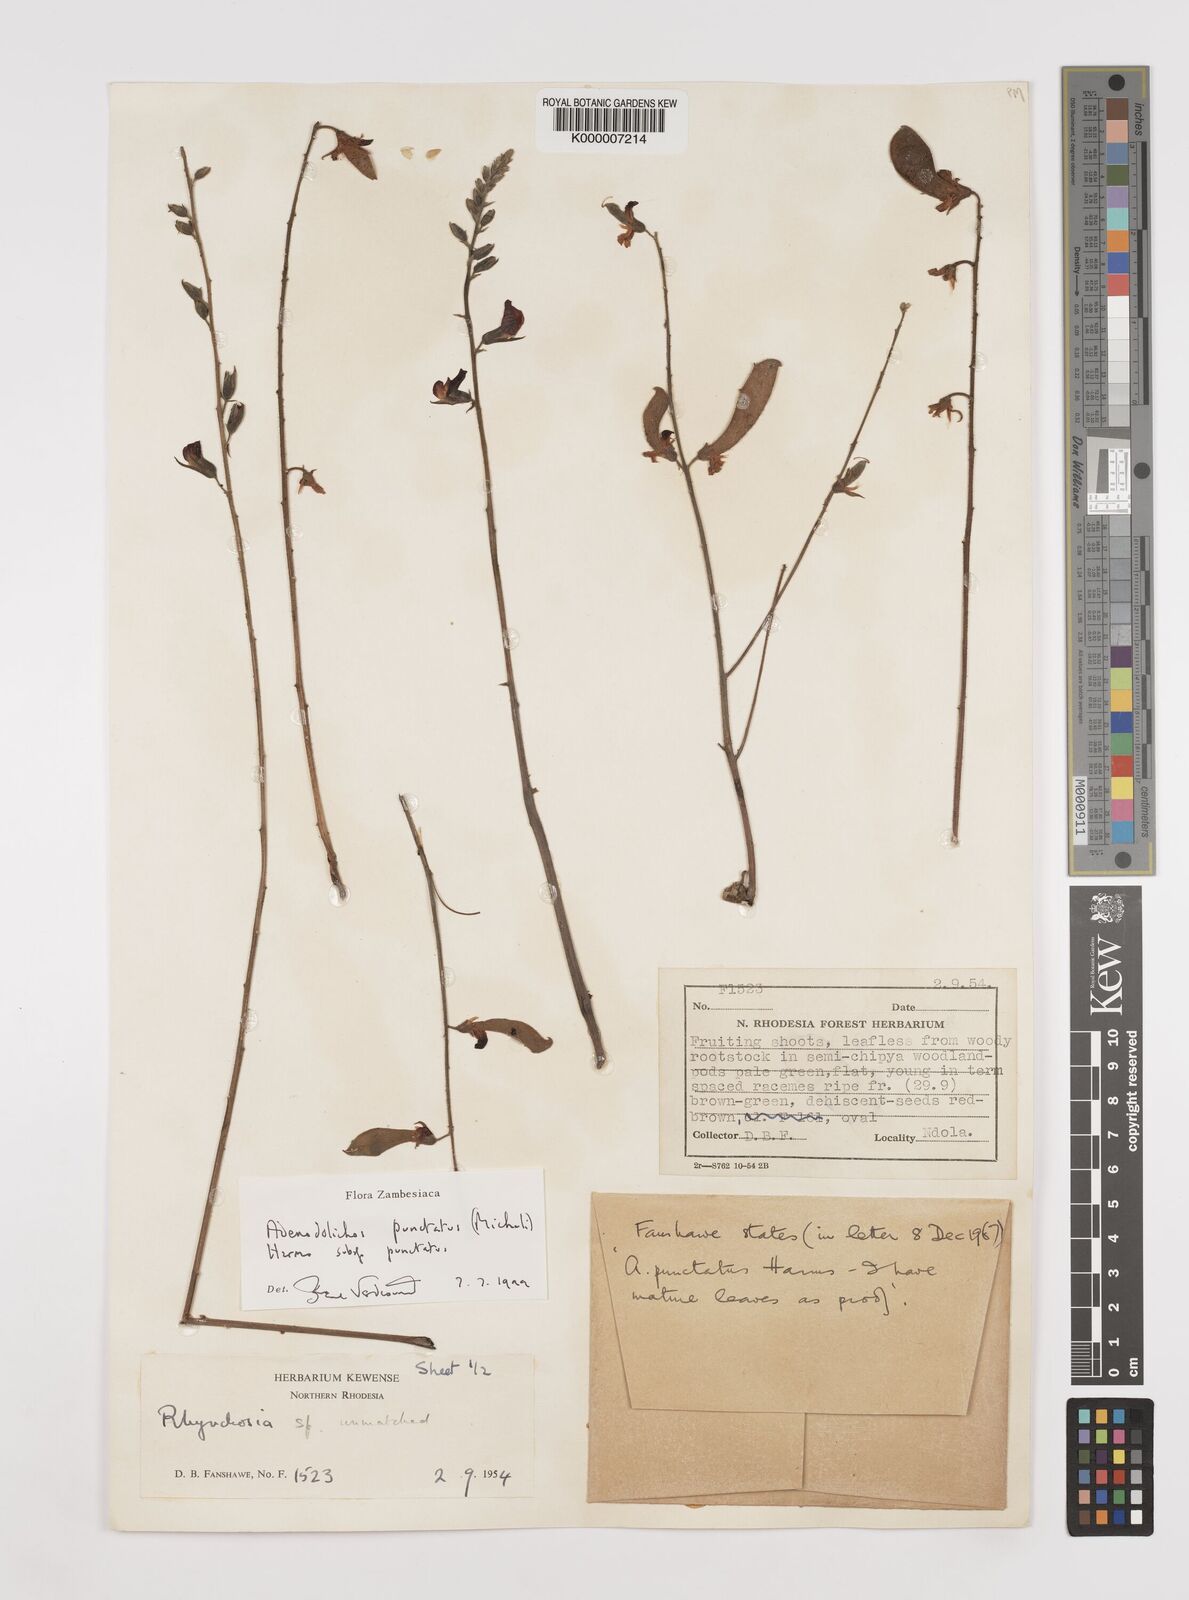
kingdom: Plantae
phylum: Tracheophyta
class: Magnoliopsida
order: Fabales
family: Fabaceae
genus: Adenodolichos
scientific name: Adenodolichos punctatus
